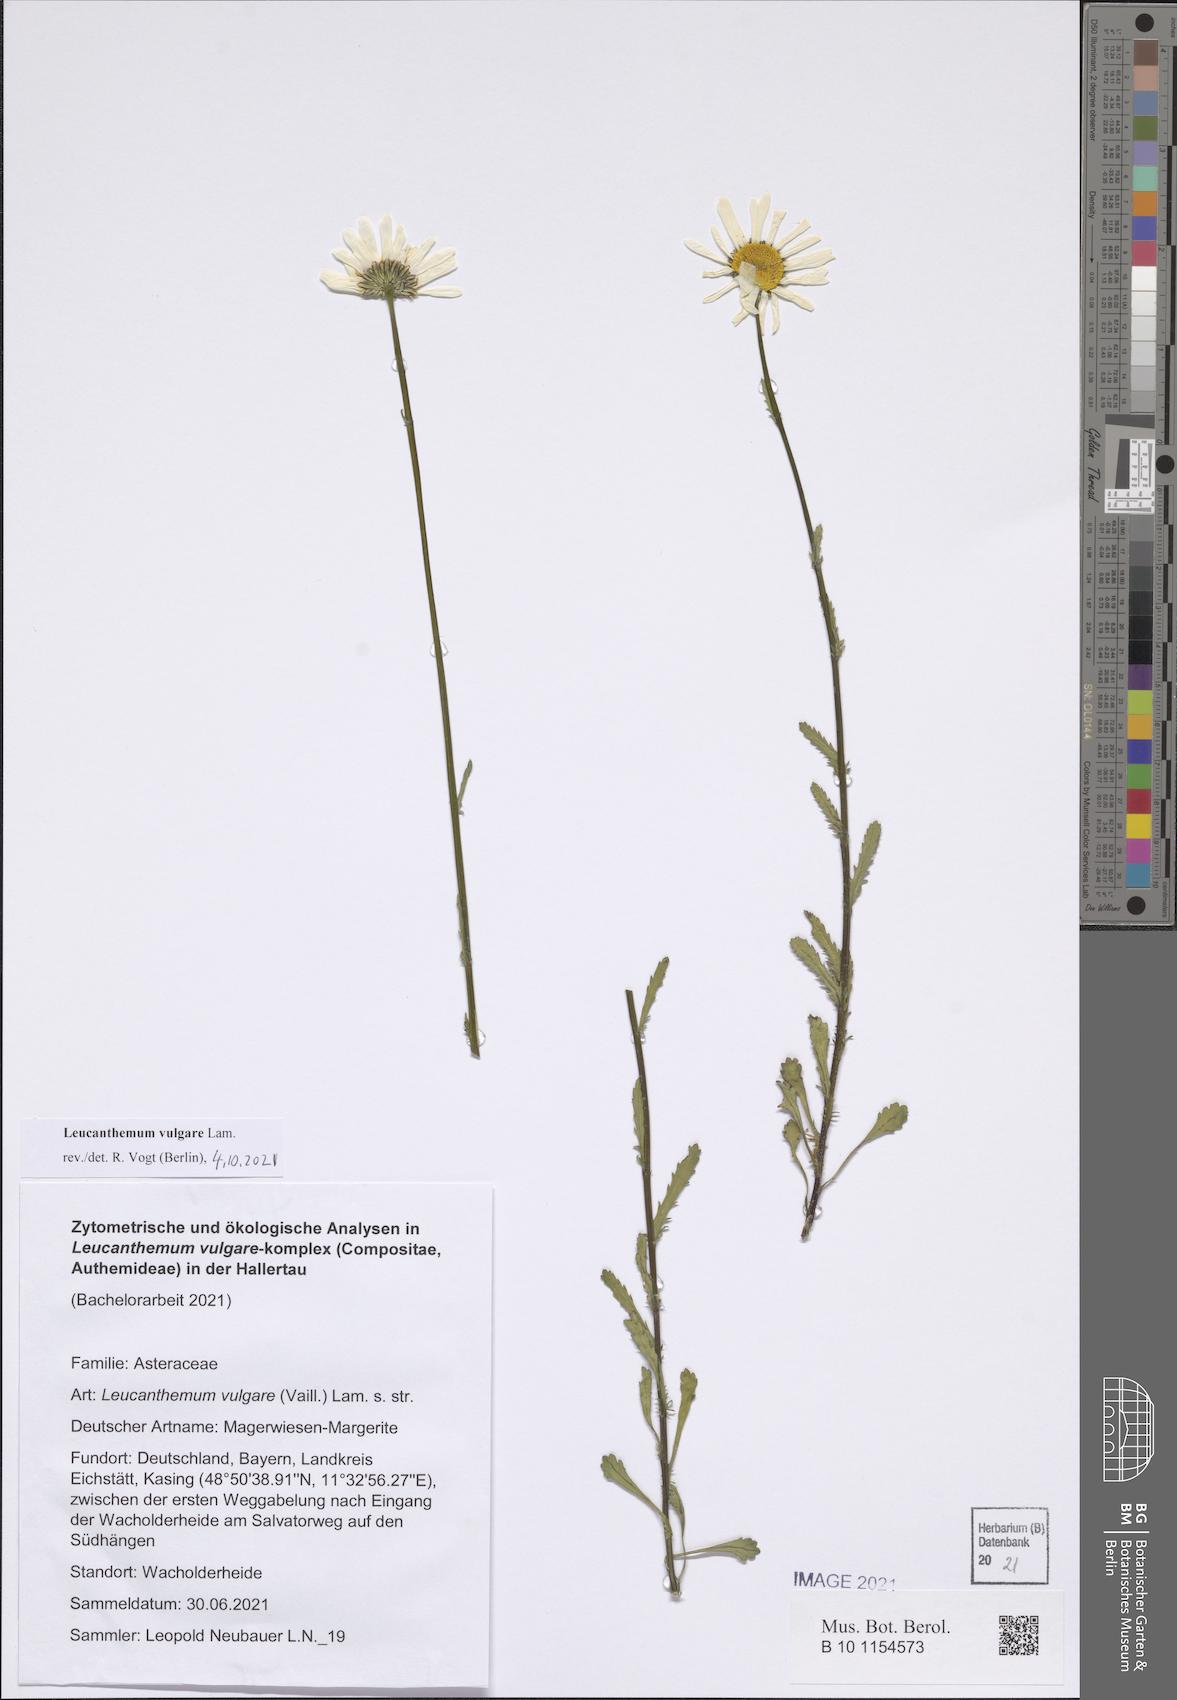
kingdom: Plantae
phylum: Tracheophyta
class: Magnoliopsida
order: Asterales
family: Asteraceae
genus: Leucanthemum
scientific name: Leucanthemum vulgare
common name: Oxeye daisy
